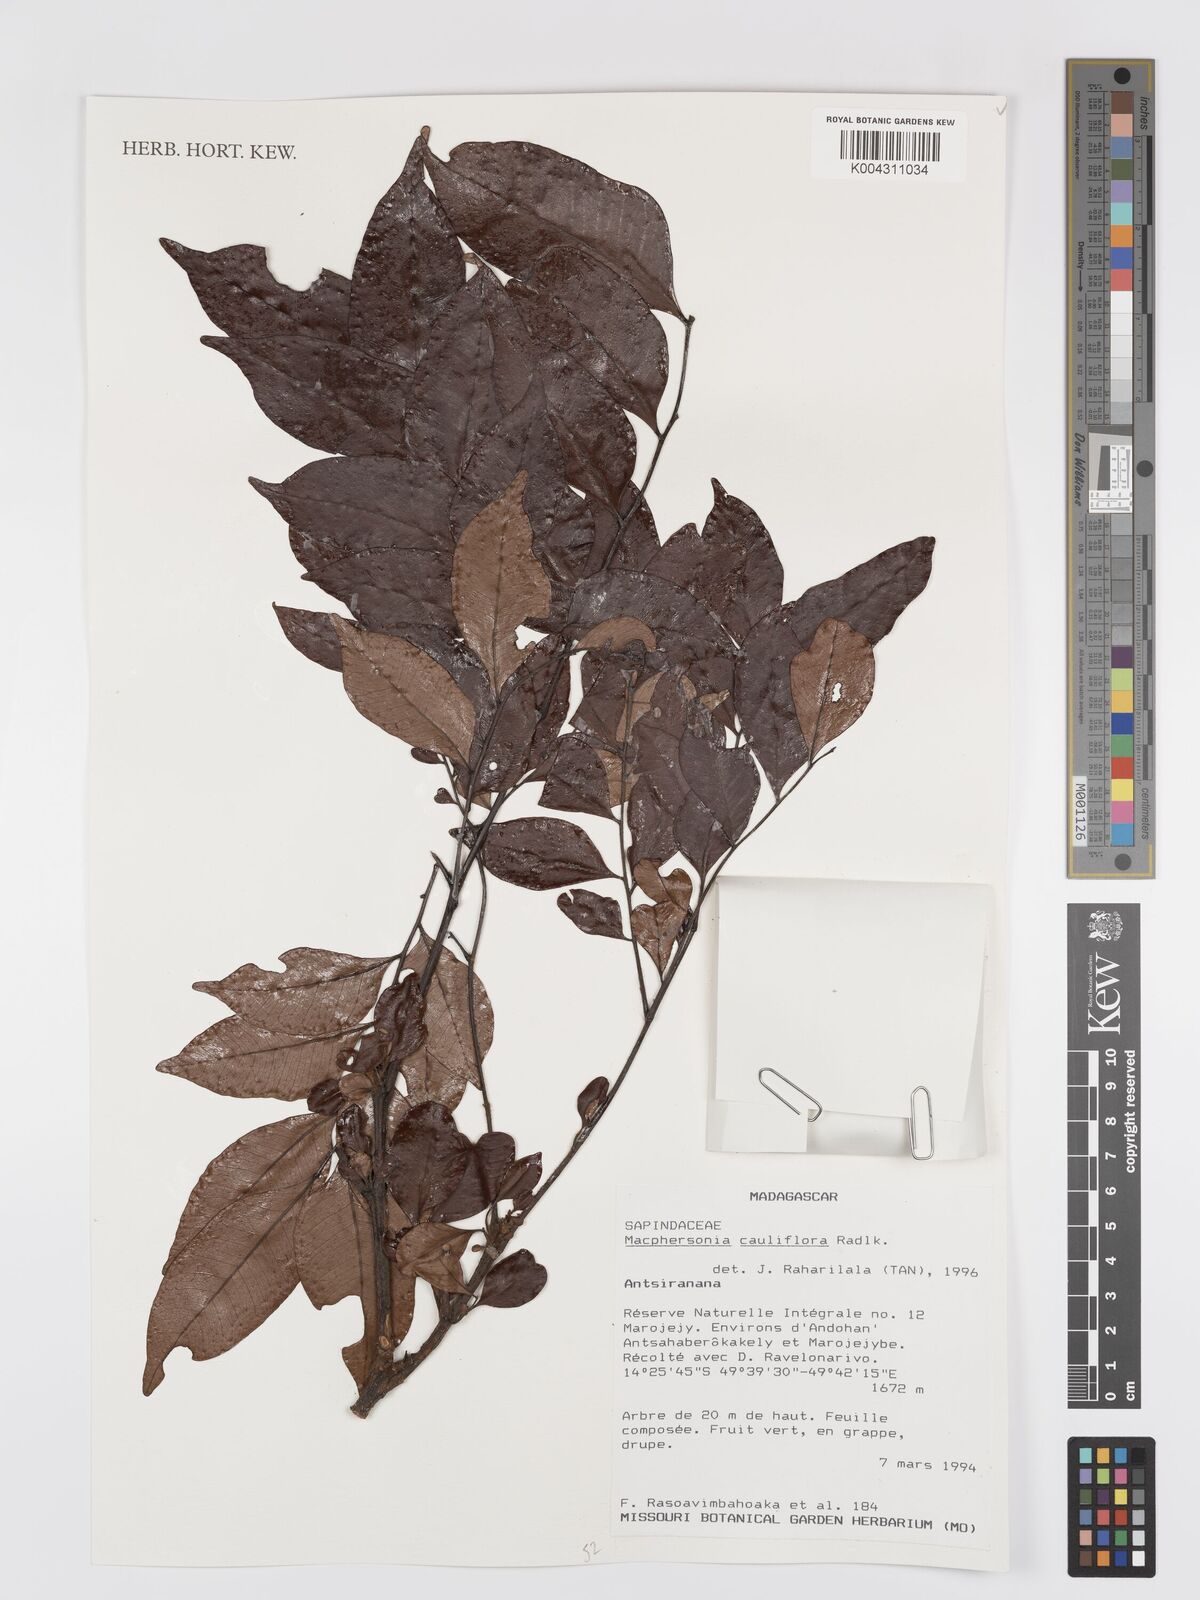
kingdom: Plantae
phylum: Tracheophyta
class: Magnoliopsida
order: Sapindales
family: Sapindaceae
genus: Macphersonia
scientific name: Macphersonia cauliflora
